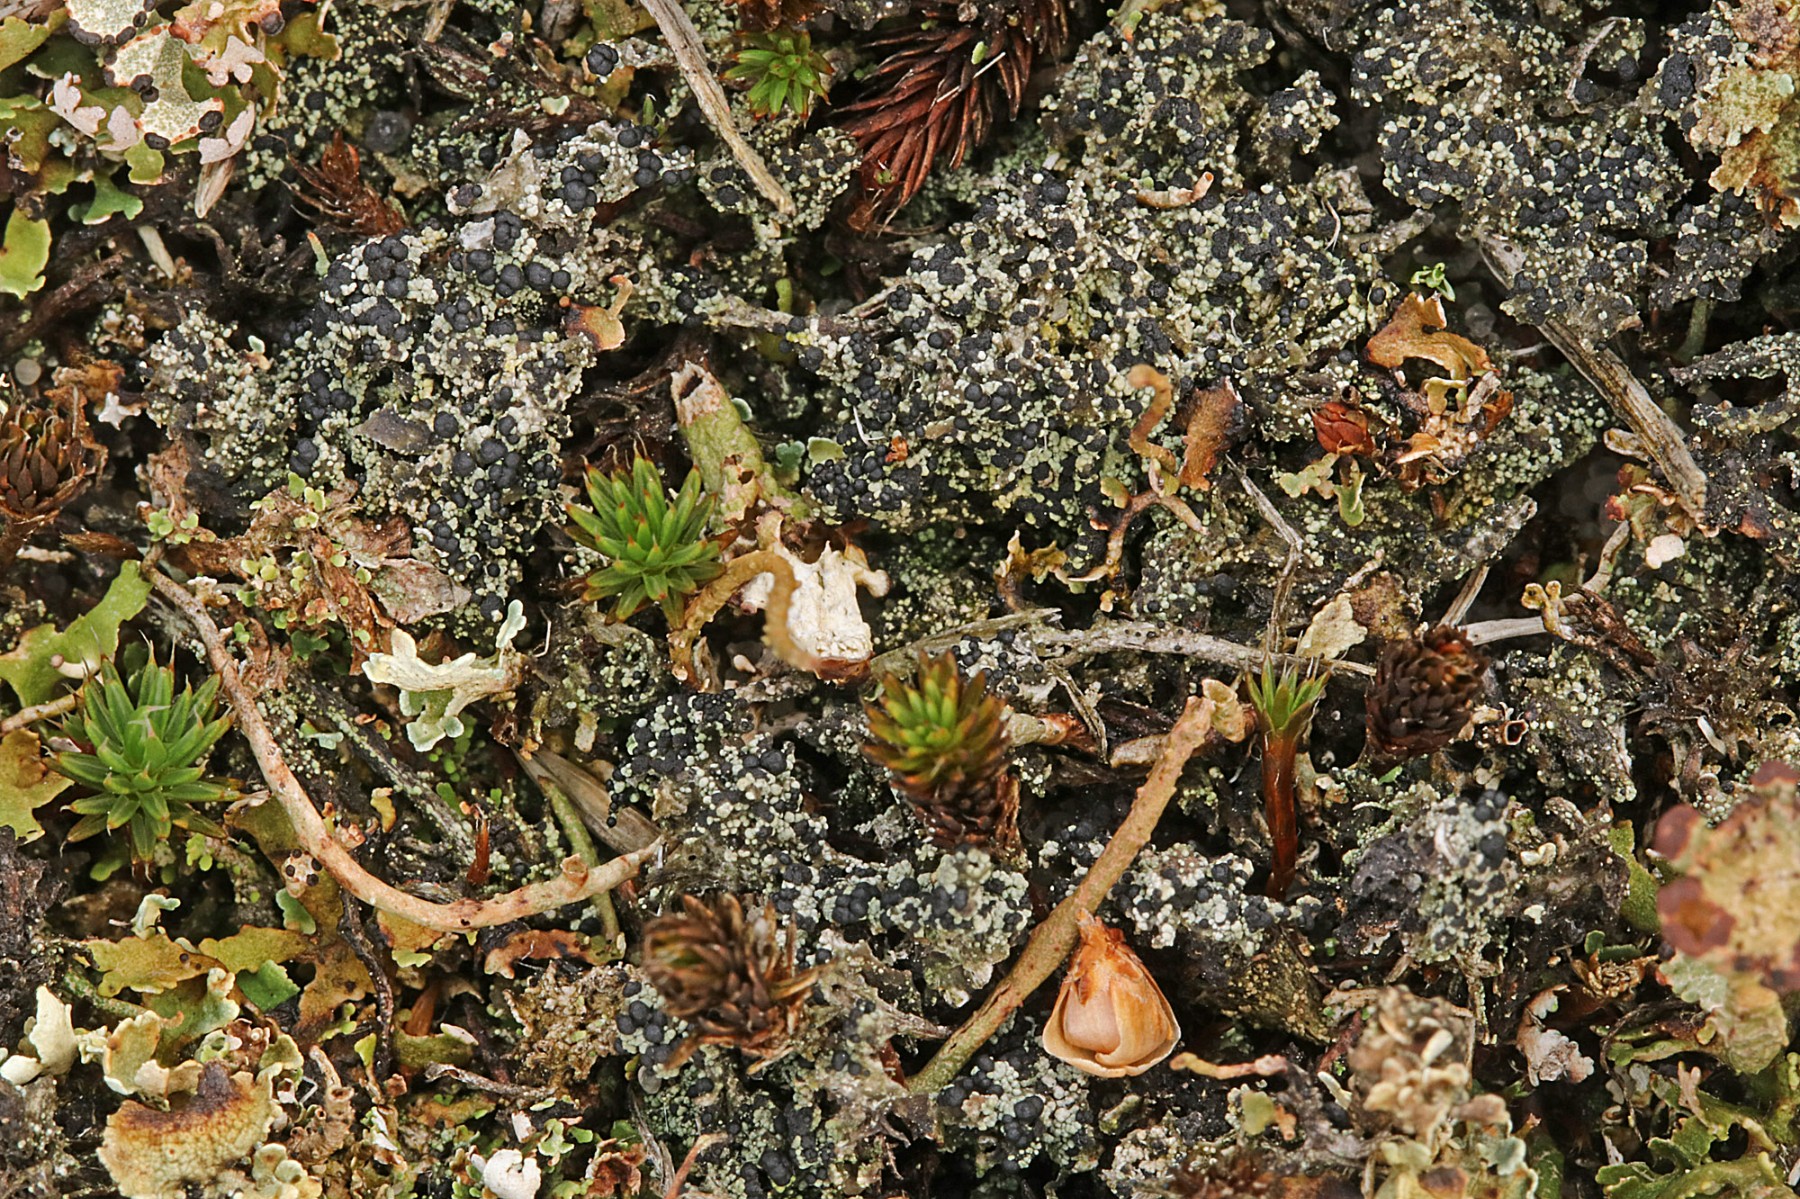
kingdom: Fungi
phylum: Ascomycota
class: Lecanoromycetes
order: Lecanorales
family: Byssolomataceae
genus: Micarea
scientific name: Micarea lignaria
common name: tørve-knaplav
